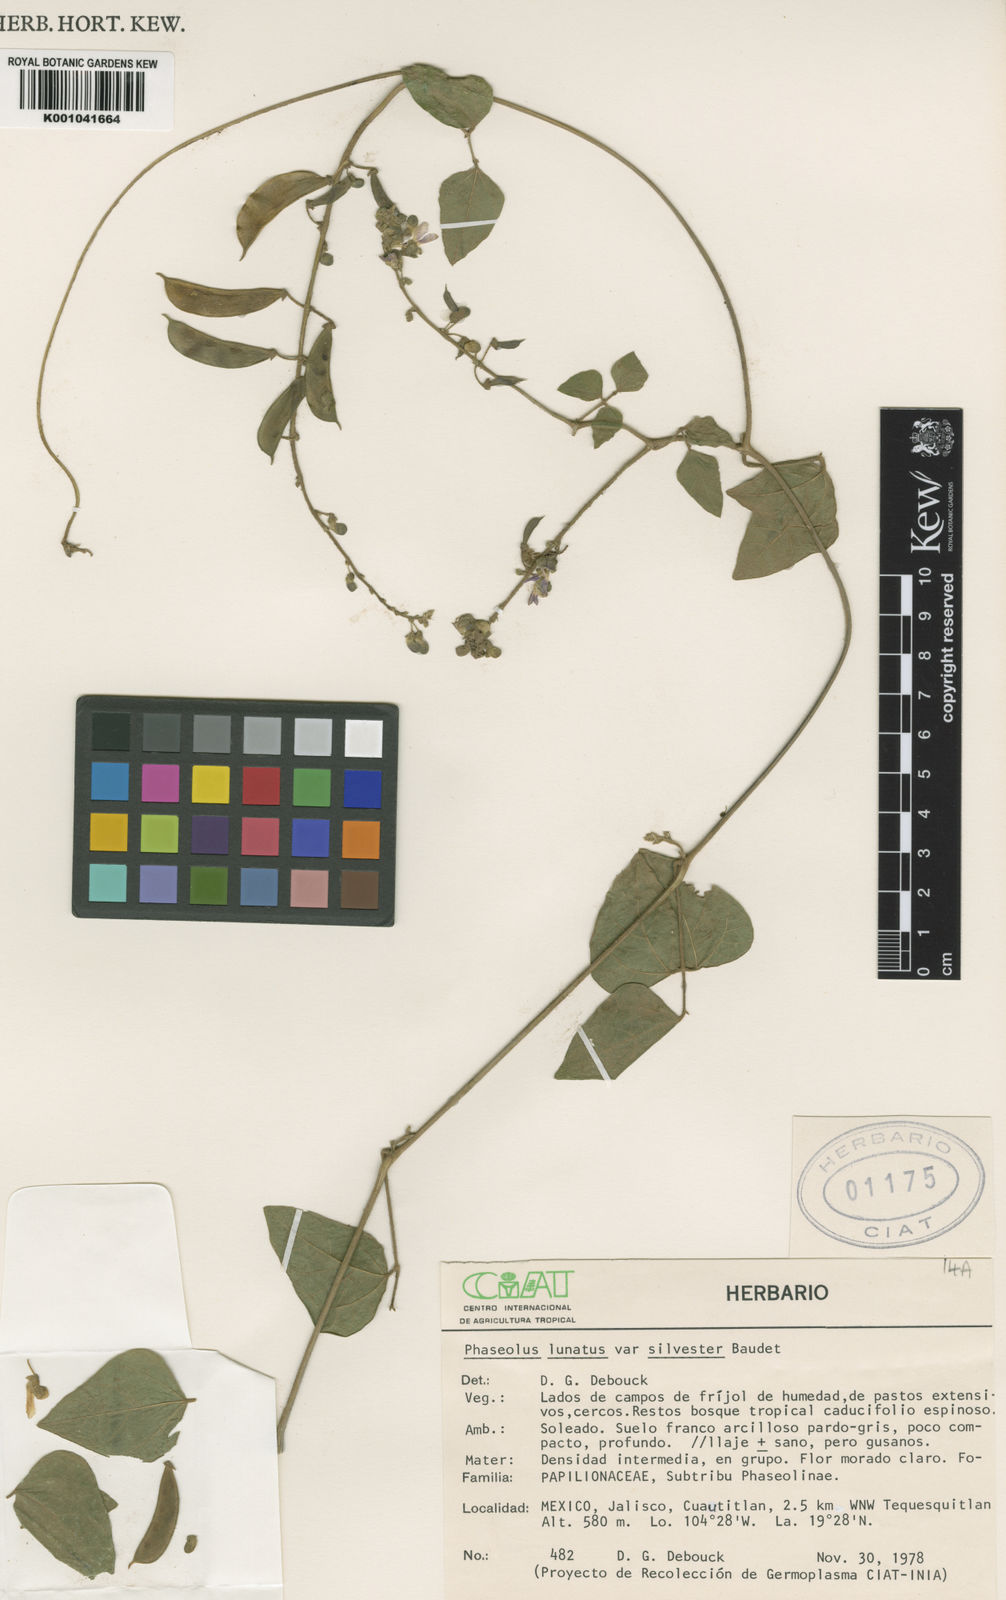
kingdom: Plantae
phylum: Tracheophyta
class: Magnoliopsida
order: Fabales
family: Fabaceae
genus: Phaseolus
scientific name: Phaseolus lunatus
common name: Sieva bean
